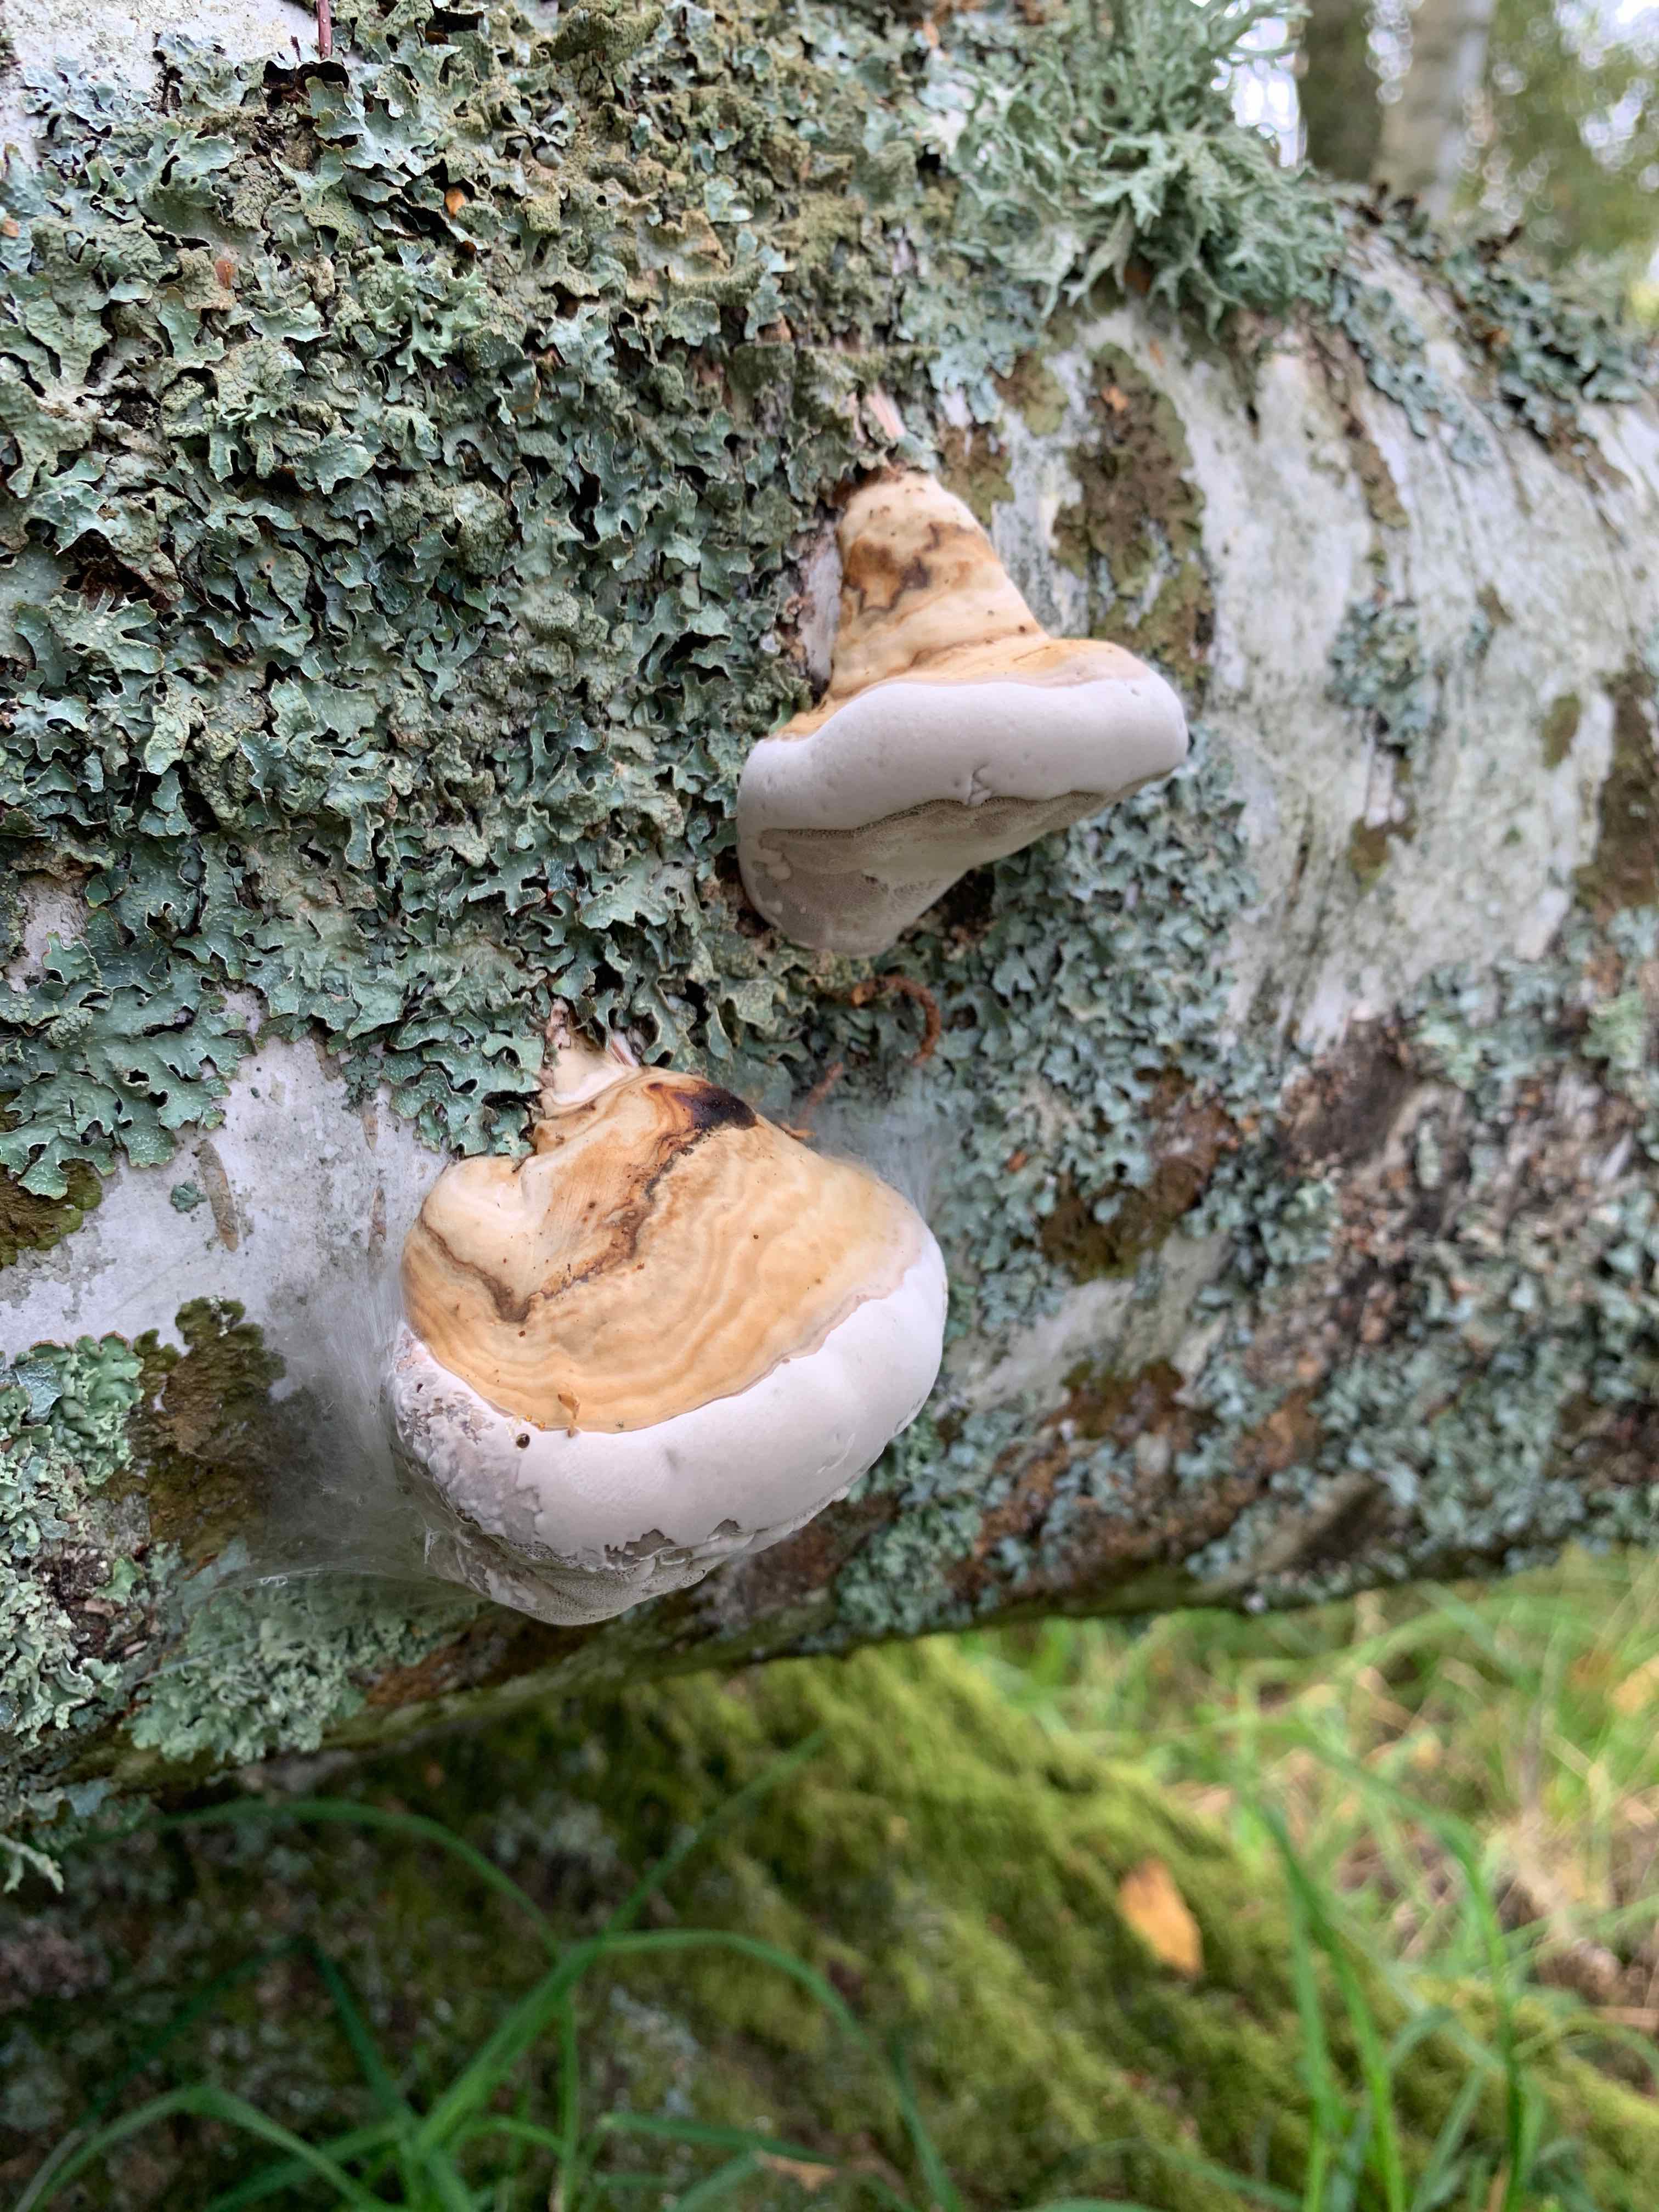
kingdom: Fungi
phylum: Basidiomycota
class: Agaricomycetes
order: Polyporales
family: Fomitopsidaceae
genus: Fomitopsis
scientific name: Fomitopsis pinicola
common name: randbæltet hovporesvamp
